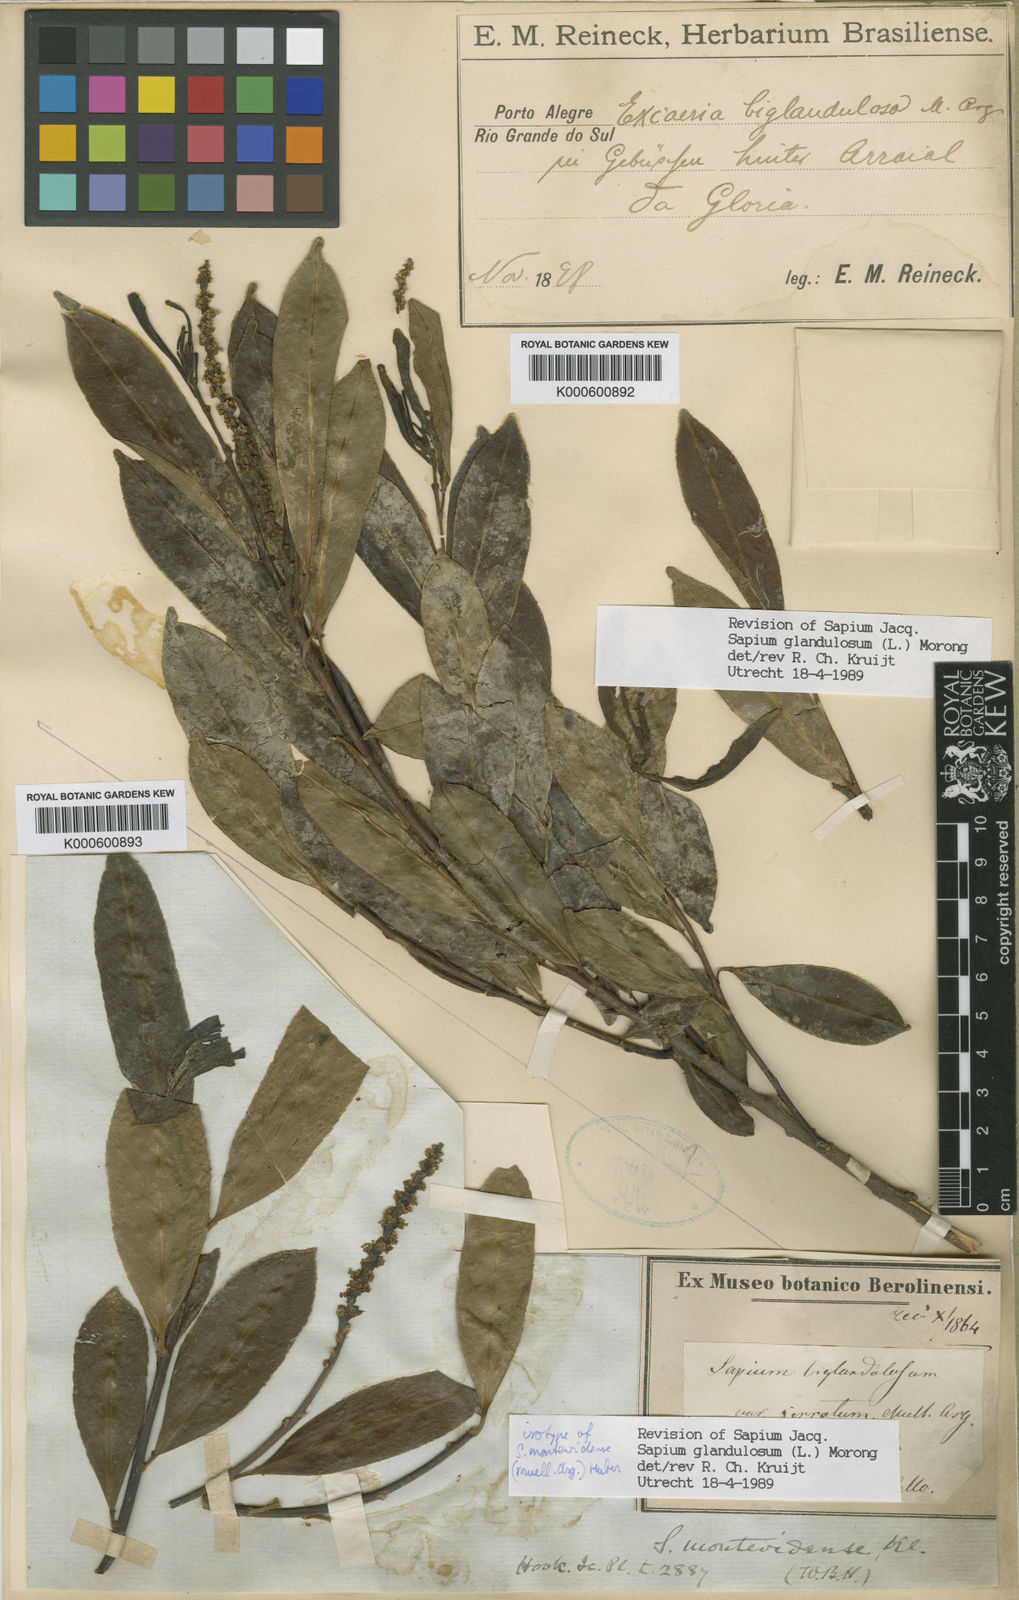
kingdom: Plantae
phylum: Tracheophyta
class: Magnoliopsida
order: Malpighiales
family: Euphorbiaceae
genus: Sapium
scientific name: Sapium glandulosum
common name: Milktree
